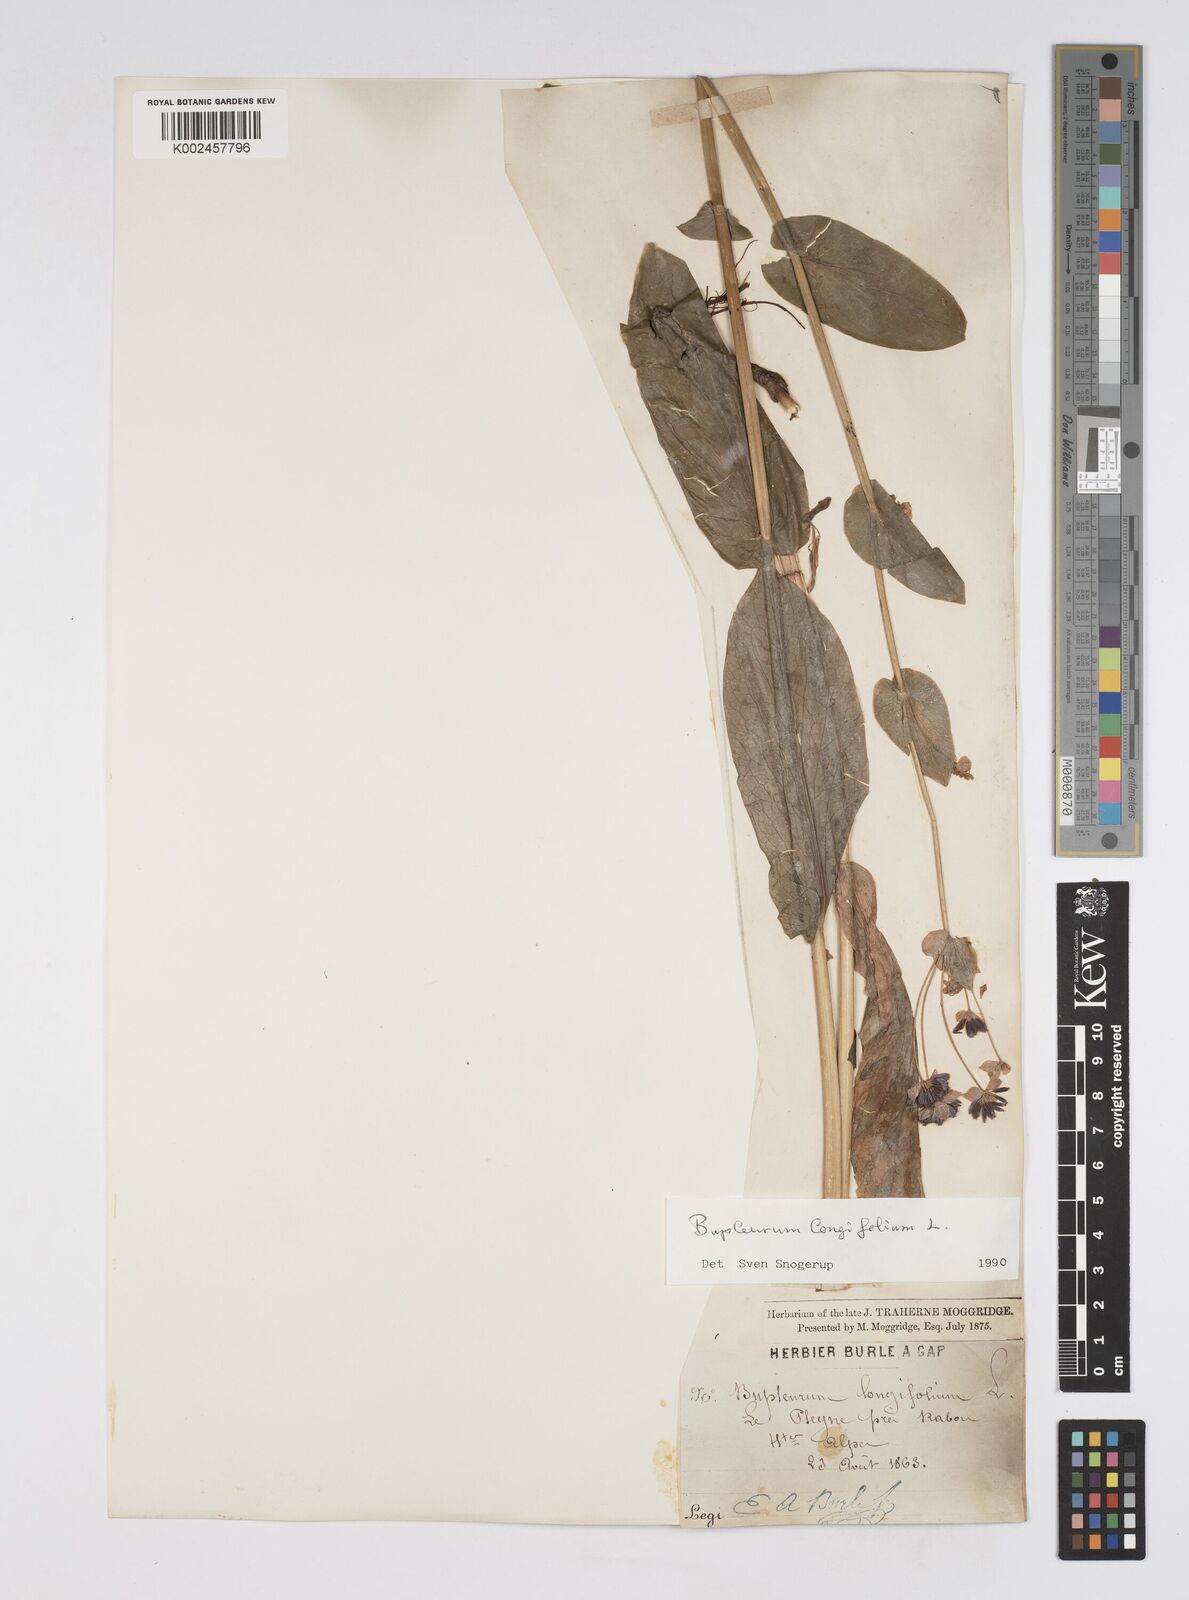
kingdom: Plantae
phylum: Tracheophyta
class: Magnoliopsida
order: Apiales
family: Apiaceae
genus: Bupleurum
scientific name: Bupleurum longifolium
